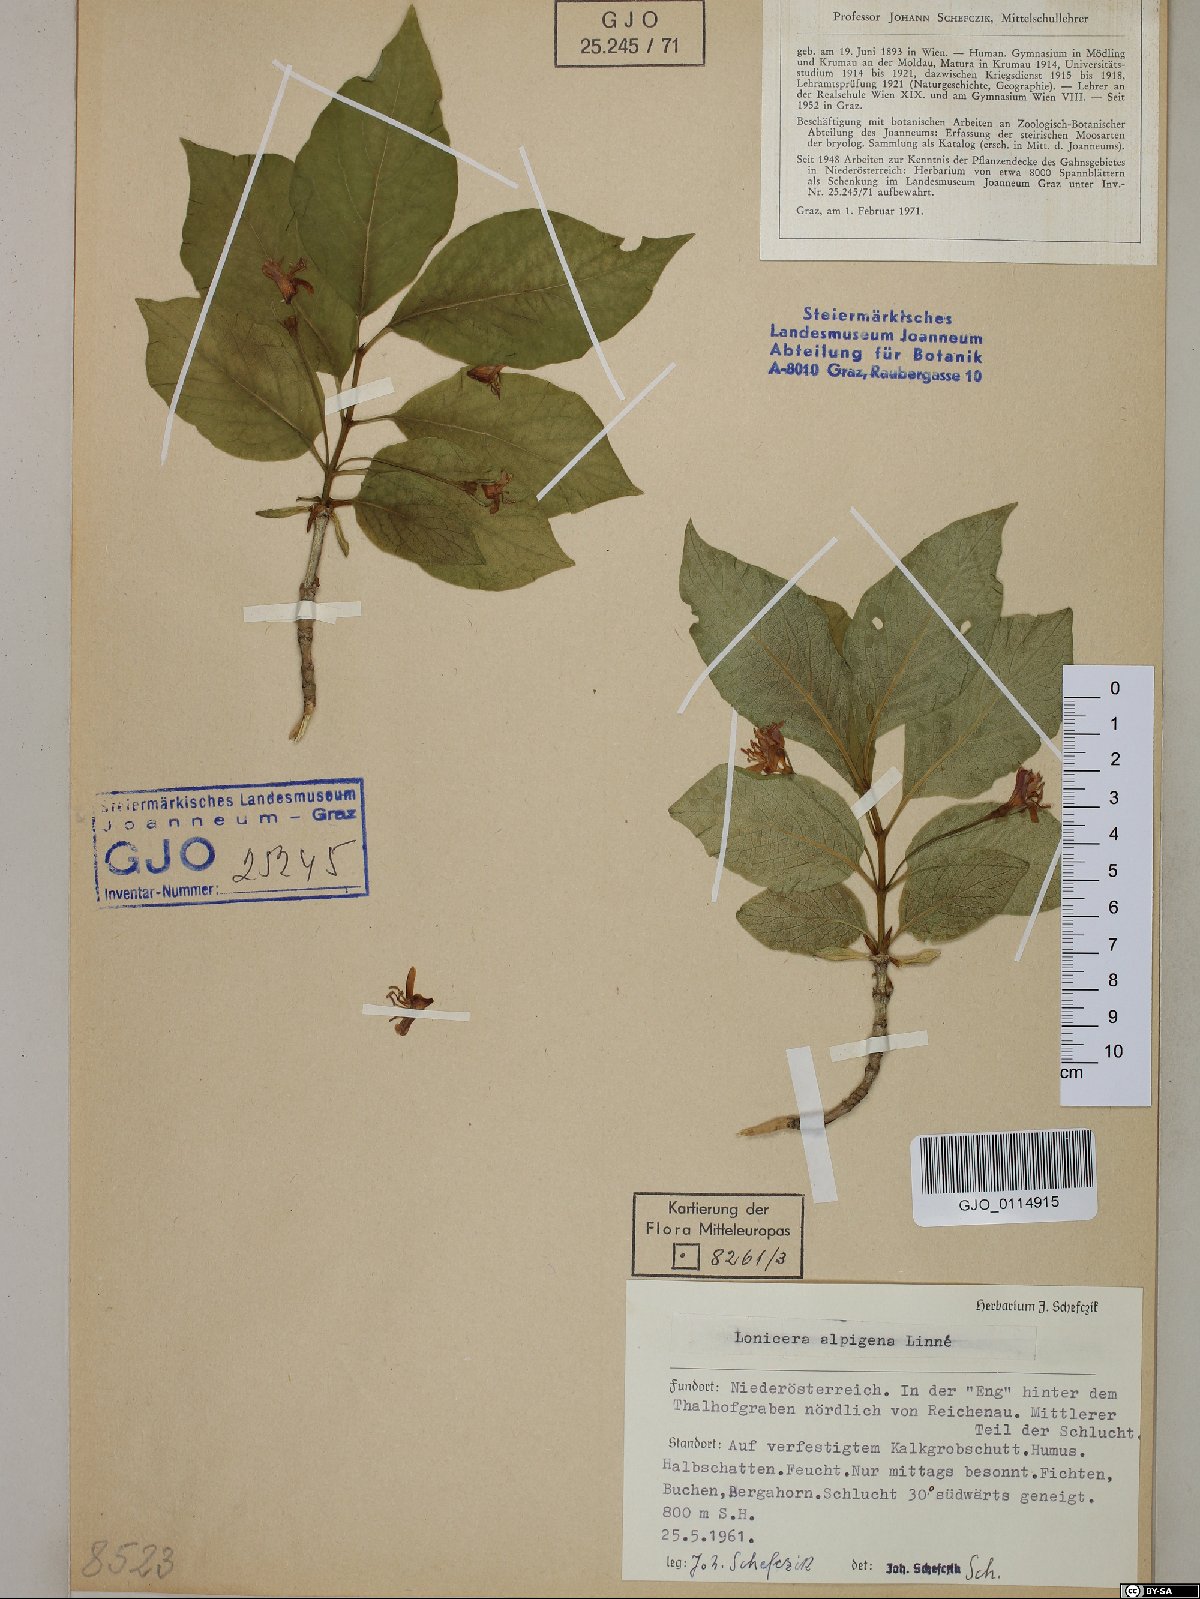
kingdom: Plantae
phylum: Tracheophyta
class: Magnoliopsida
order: Dipsacales
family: Caprifoliaceae
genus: Lonicera
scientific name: Lonicera alpigena
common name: Alpine honeysuckle
